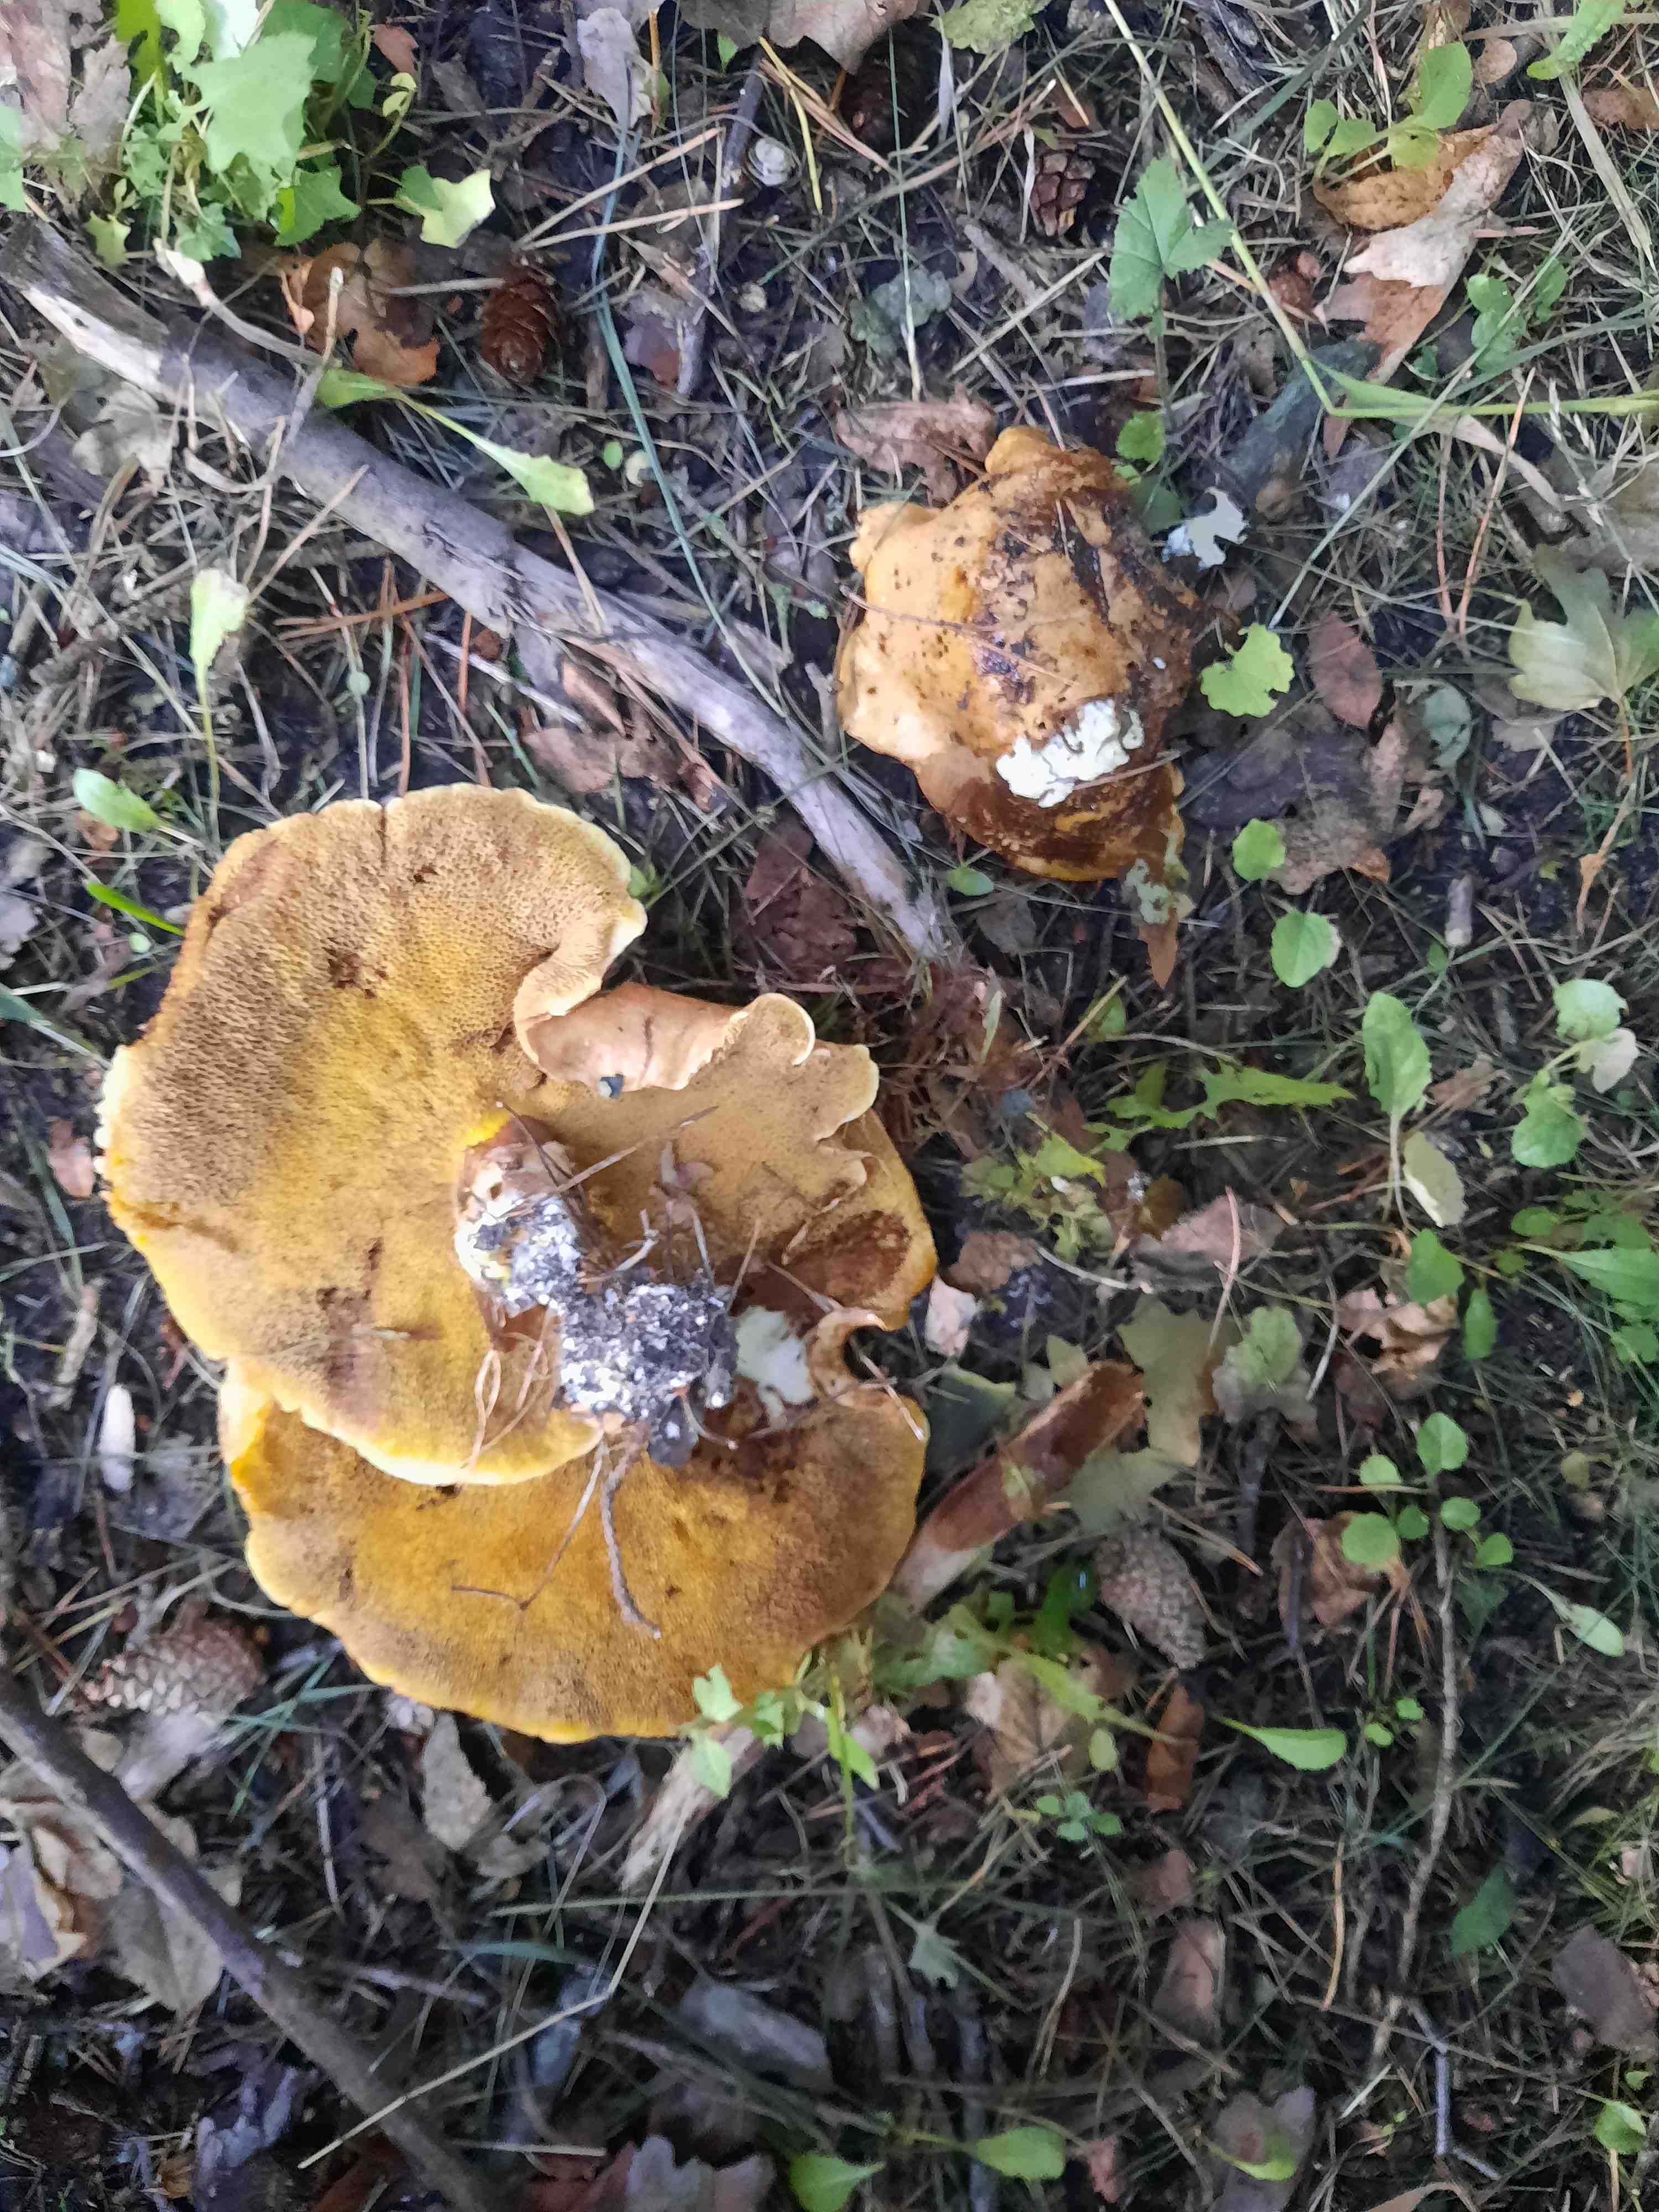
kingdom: Fungi
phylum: Basidiomycota
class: Agaricomycetes
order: Boletales
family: Suillaceae
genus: Suillus
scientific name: Suillus grevillei
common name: lærke-slimrørhat
